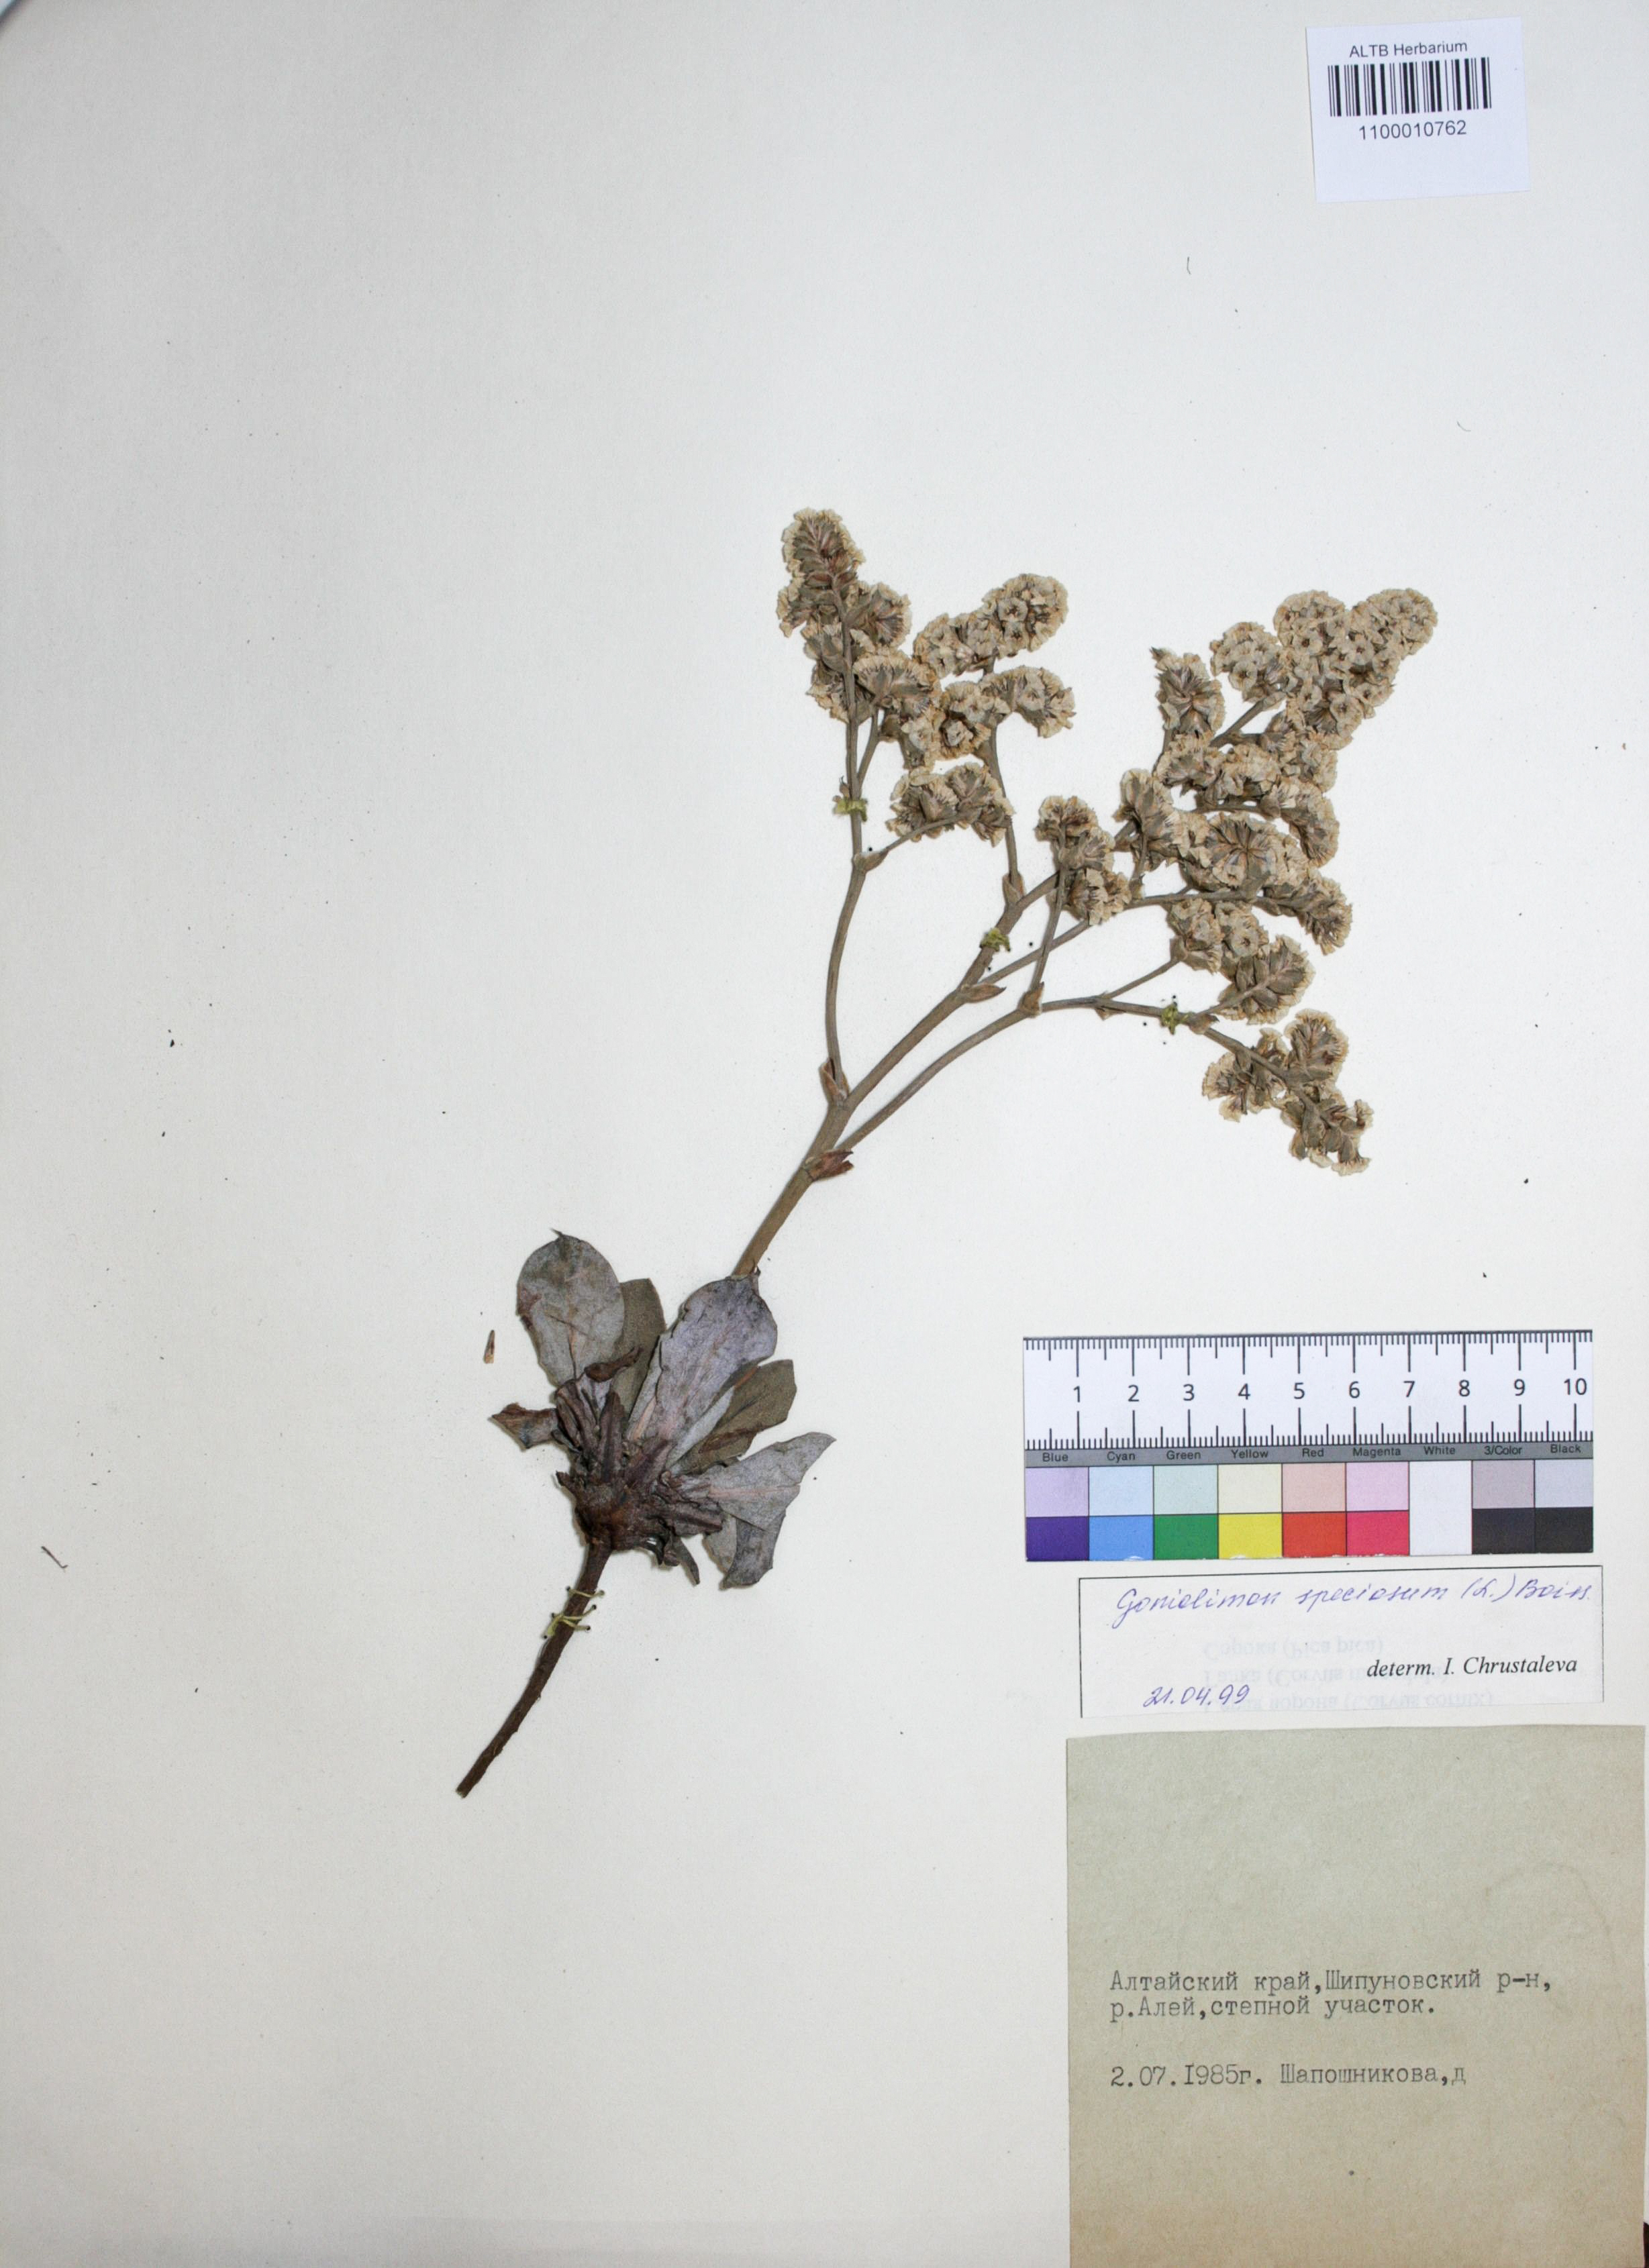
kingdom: Plantae
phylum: Tracheophyta
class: Magnoliopsida
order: Caryophyllales
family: Plumbaginaceae
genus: Goniolimon
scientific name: Goniolimon speciosum
